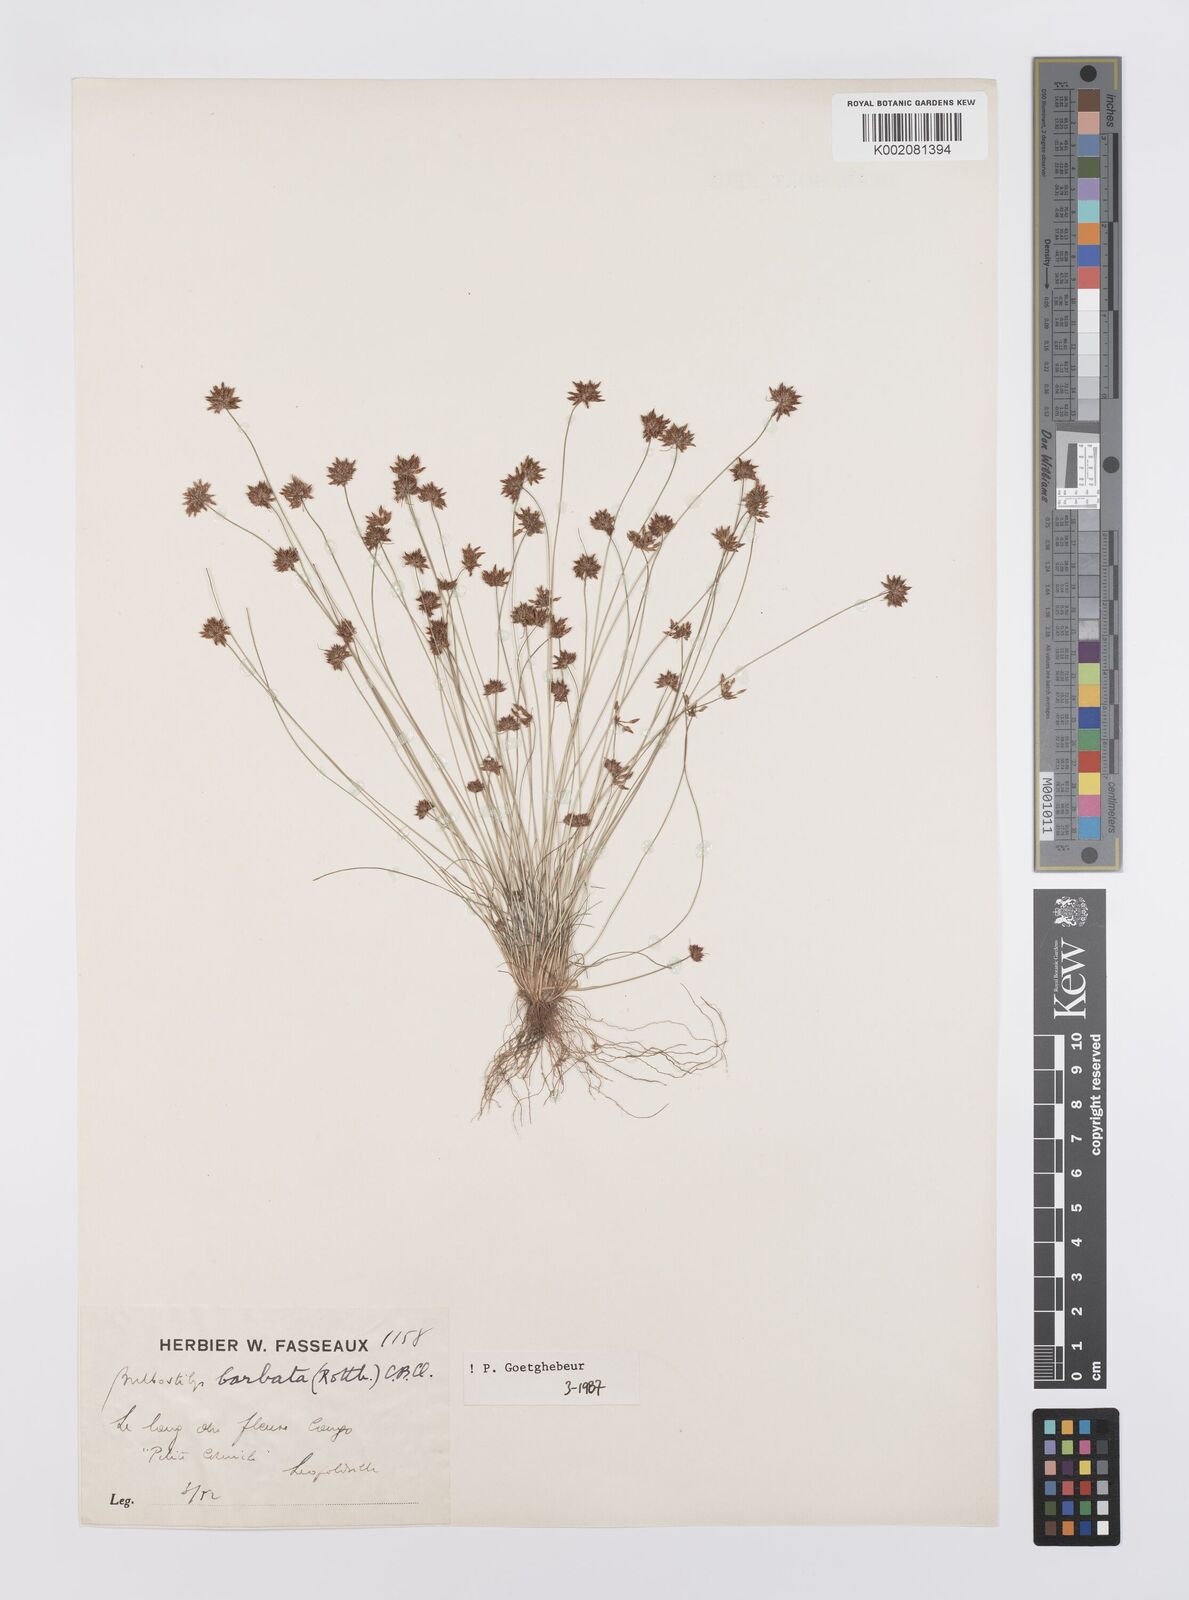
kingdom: Plantae
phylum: Tracheophyta
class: Liliopsida
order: Poales
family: Cyperaceae
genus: Bulbostylis
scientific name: Bulbostylis barbata
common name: Watergrass
